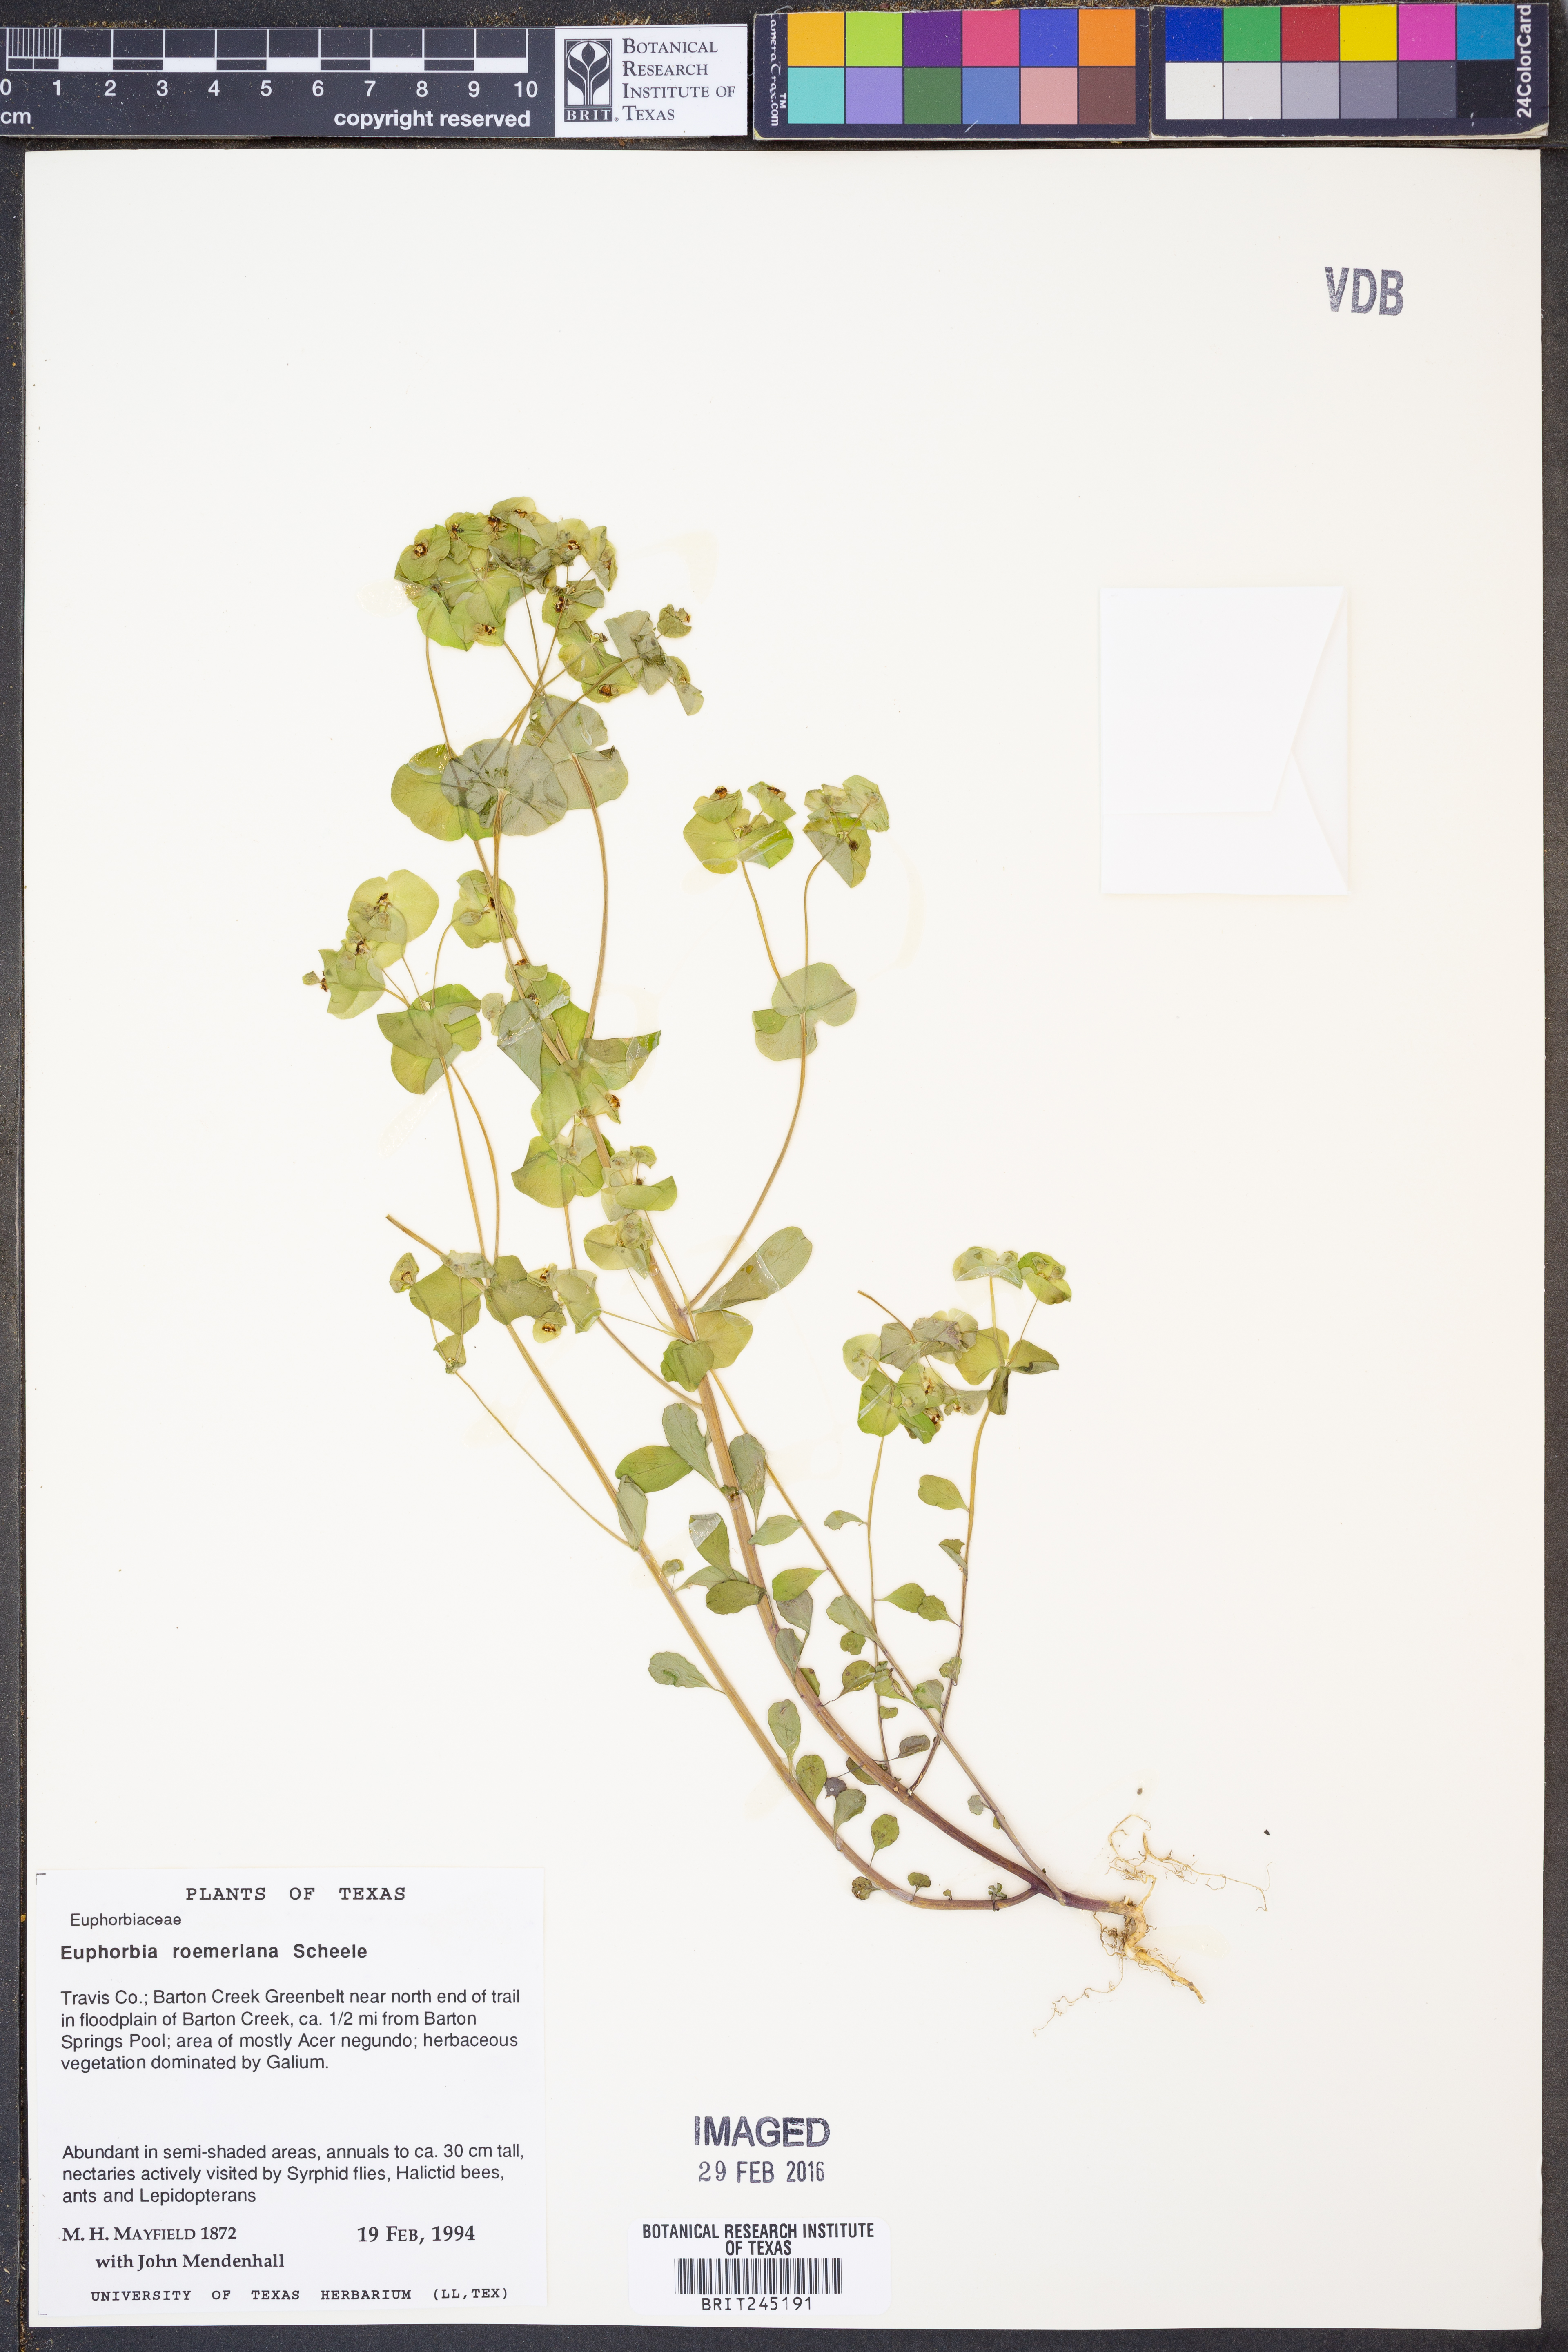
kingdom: Plantae
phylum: Tracheophyta
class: Magnoliopsida
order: Malpighiales
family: Euphorbiaceae
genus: Euphorbia
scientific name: Euphorbia roemeriana
